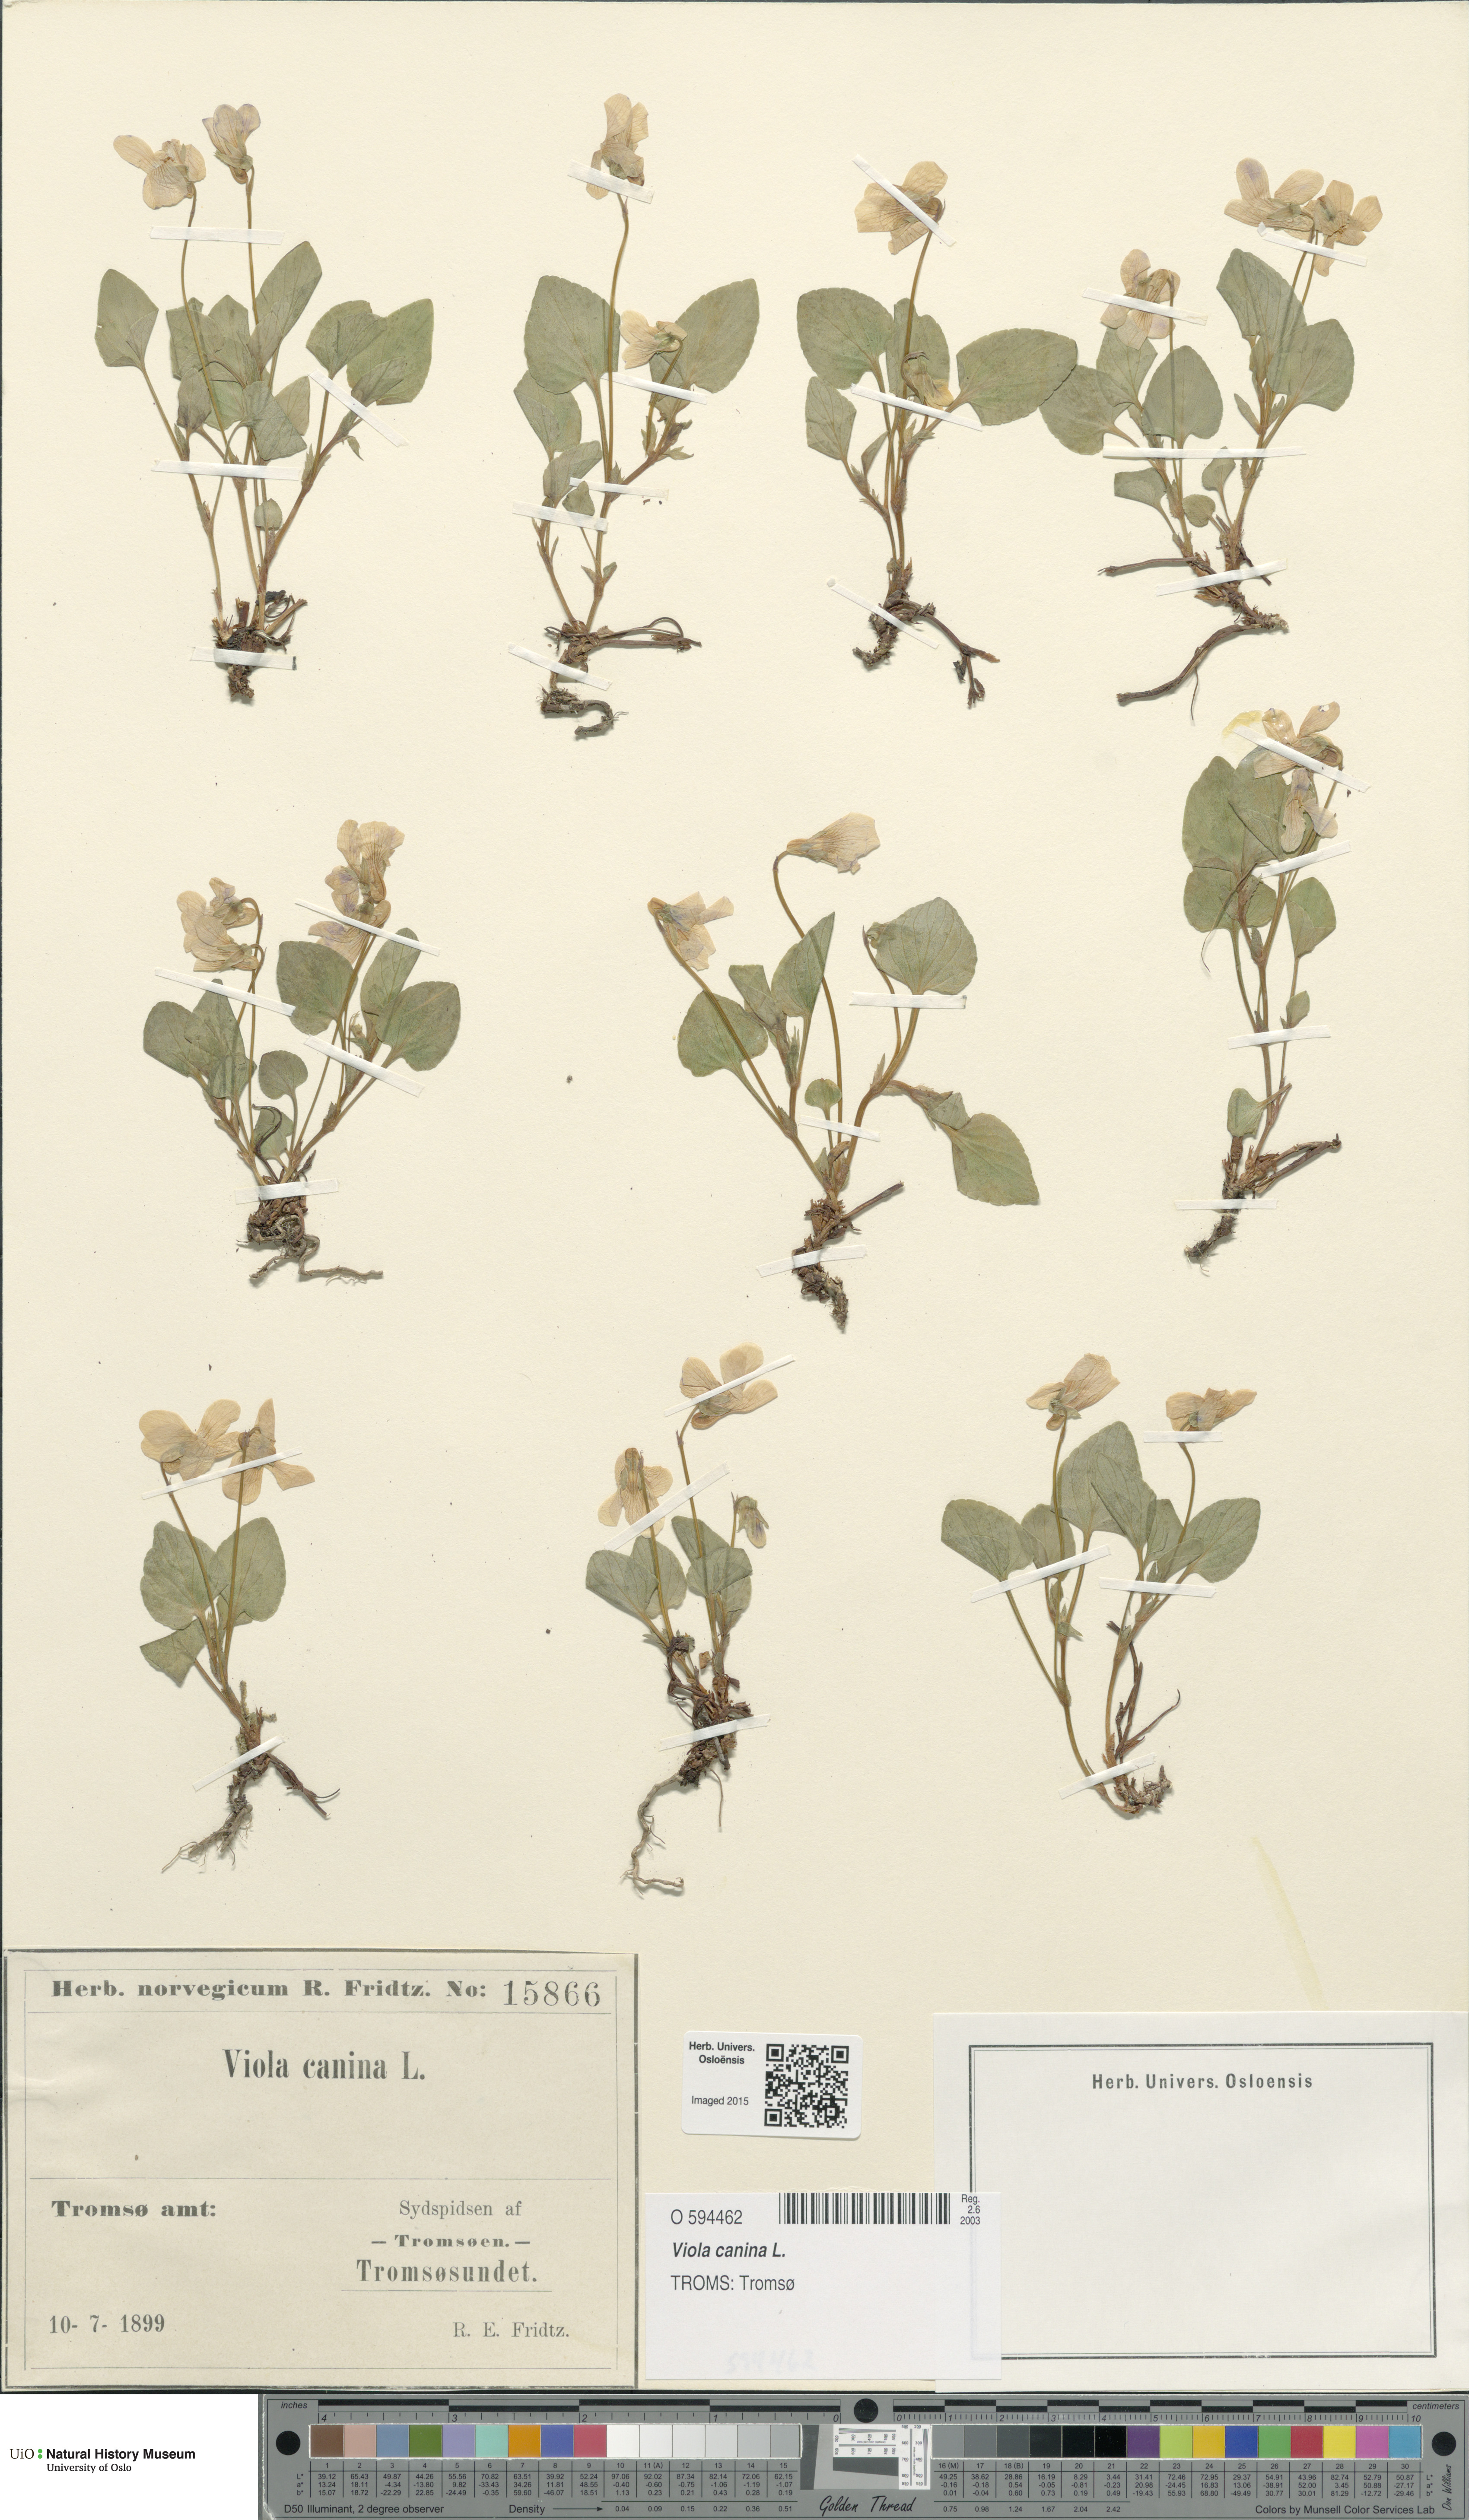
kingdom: Plantae
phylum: Tracheophyta
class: Magnoliopsida
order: Malpighiales
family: Violaceae
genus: Viola
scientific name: Viola canina
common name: Heath dog-violet
